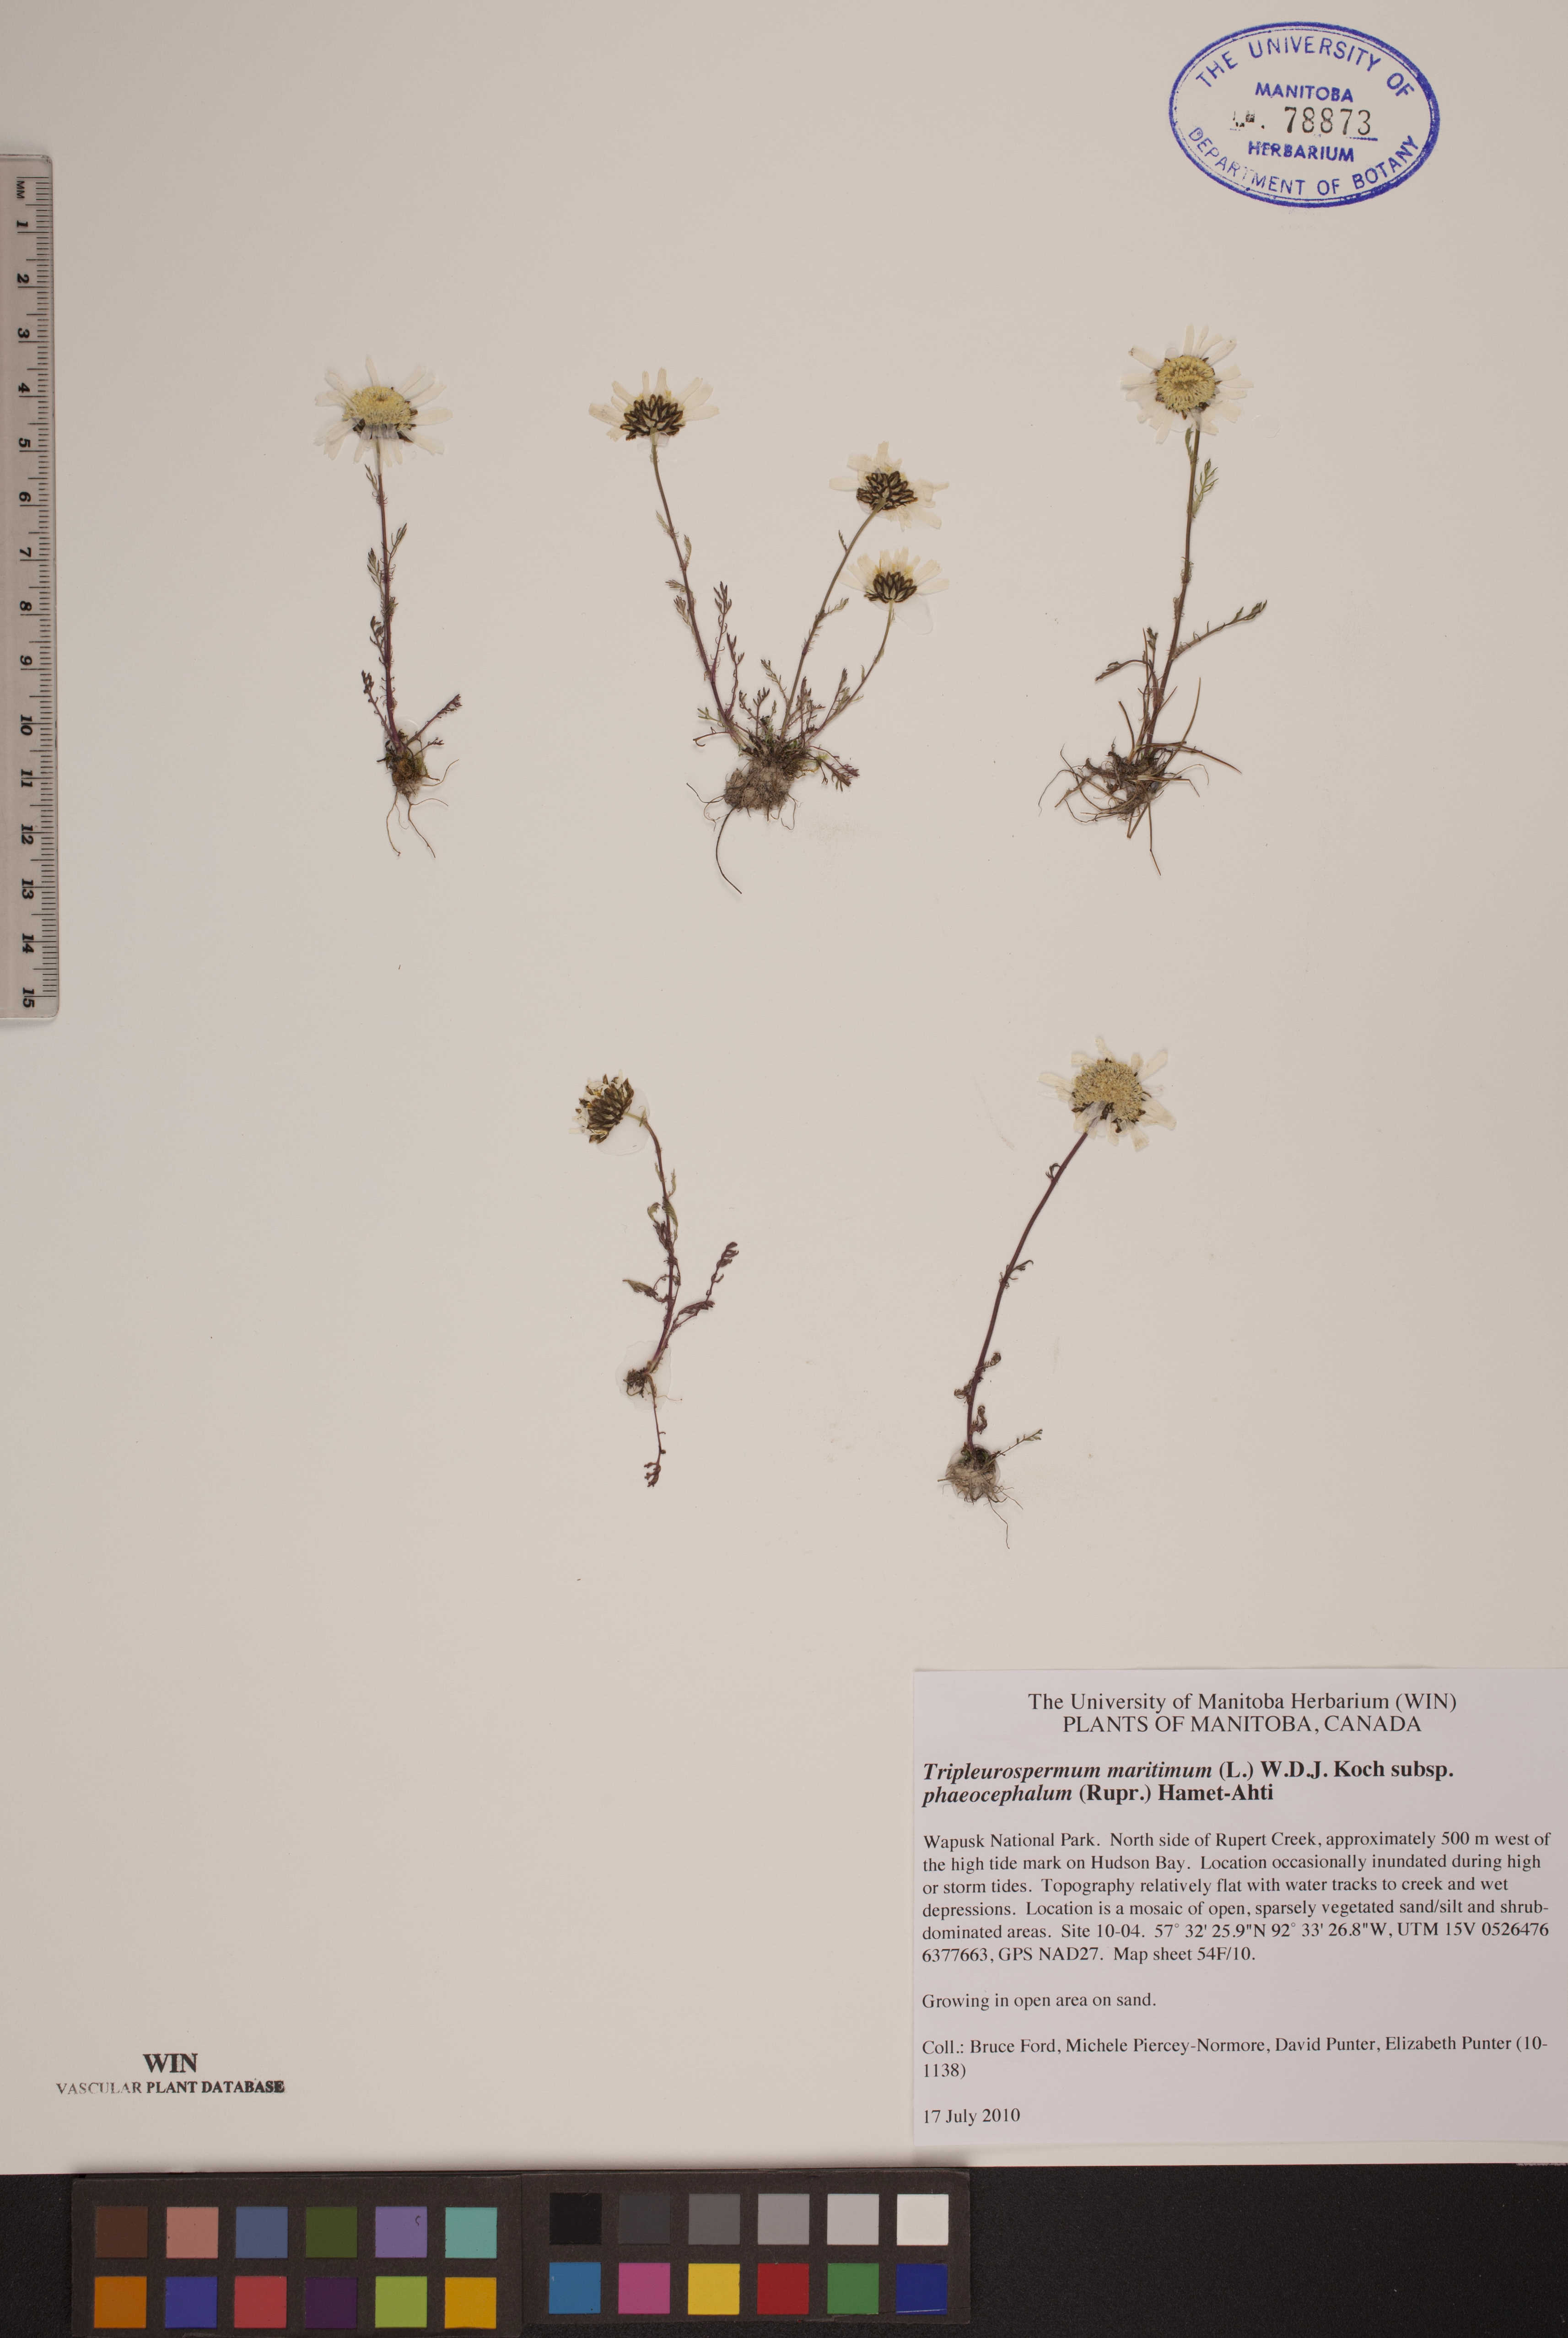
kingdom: Plantae
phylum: Tracheophyta
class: Magnoliopsida
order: Asterales
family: Asteraceae
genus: Tripleurospermum
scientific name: Tripleurospermum hookeri
